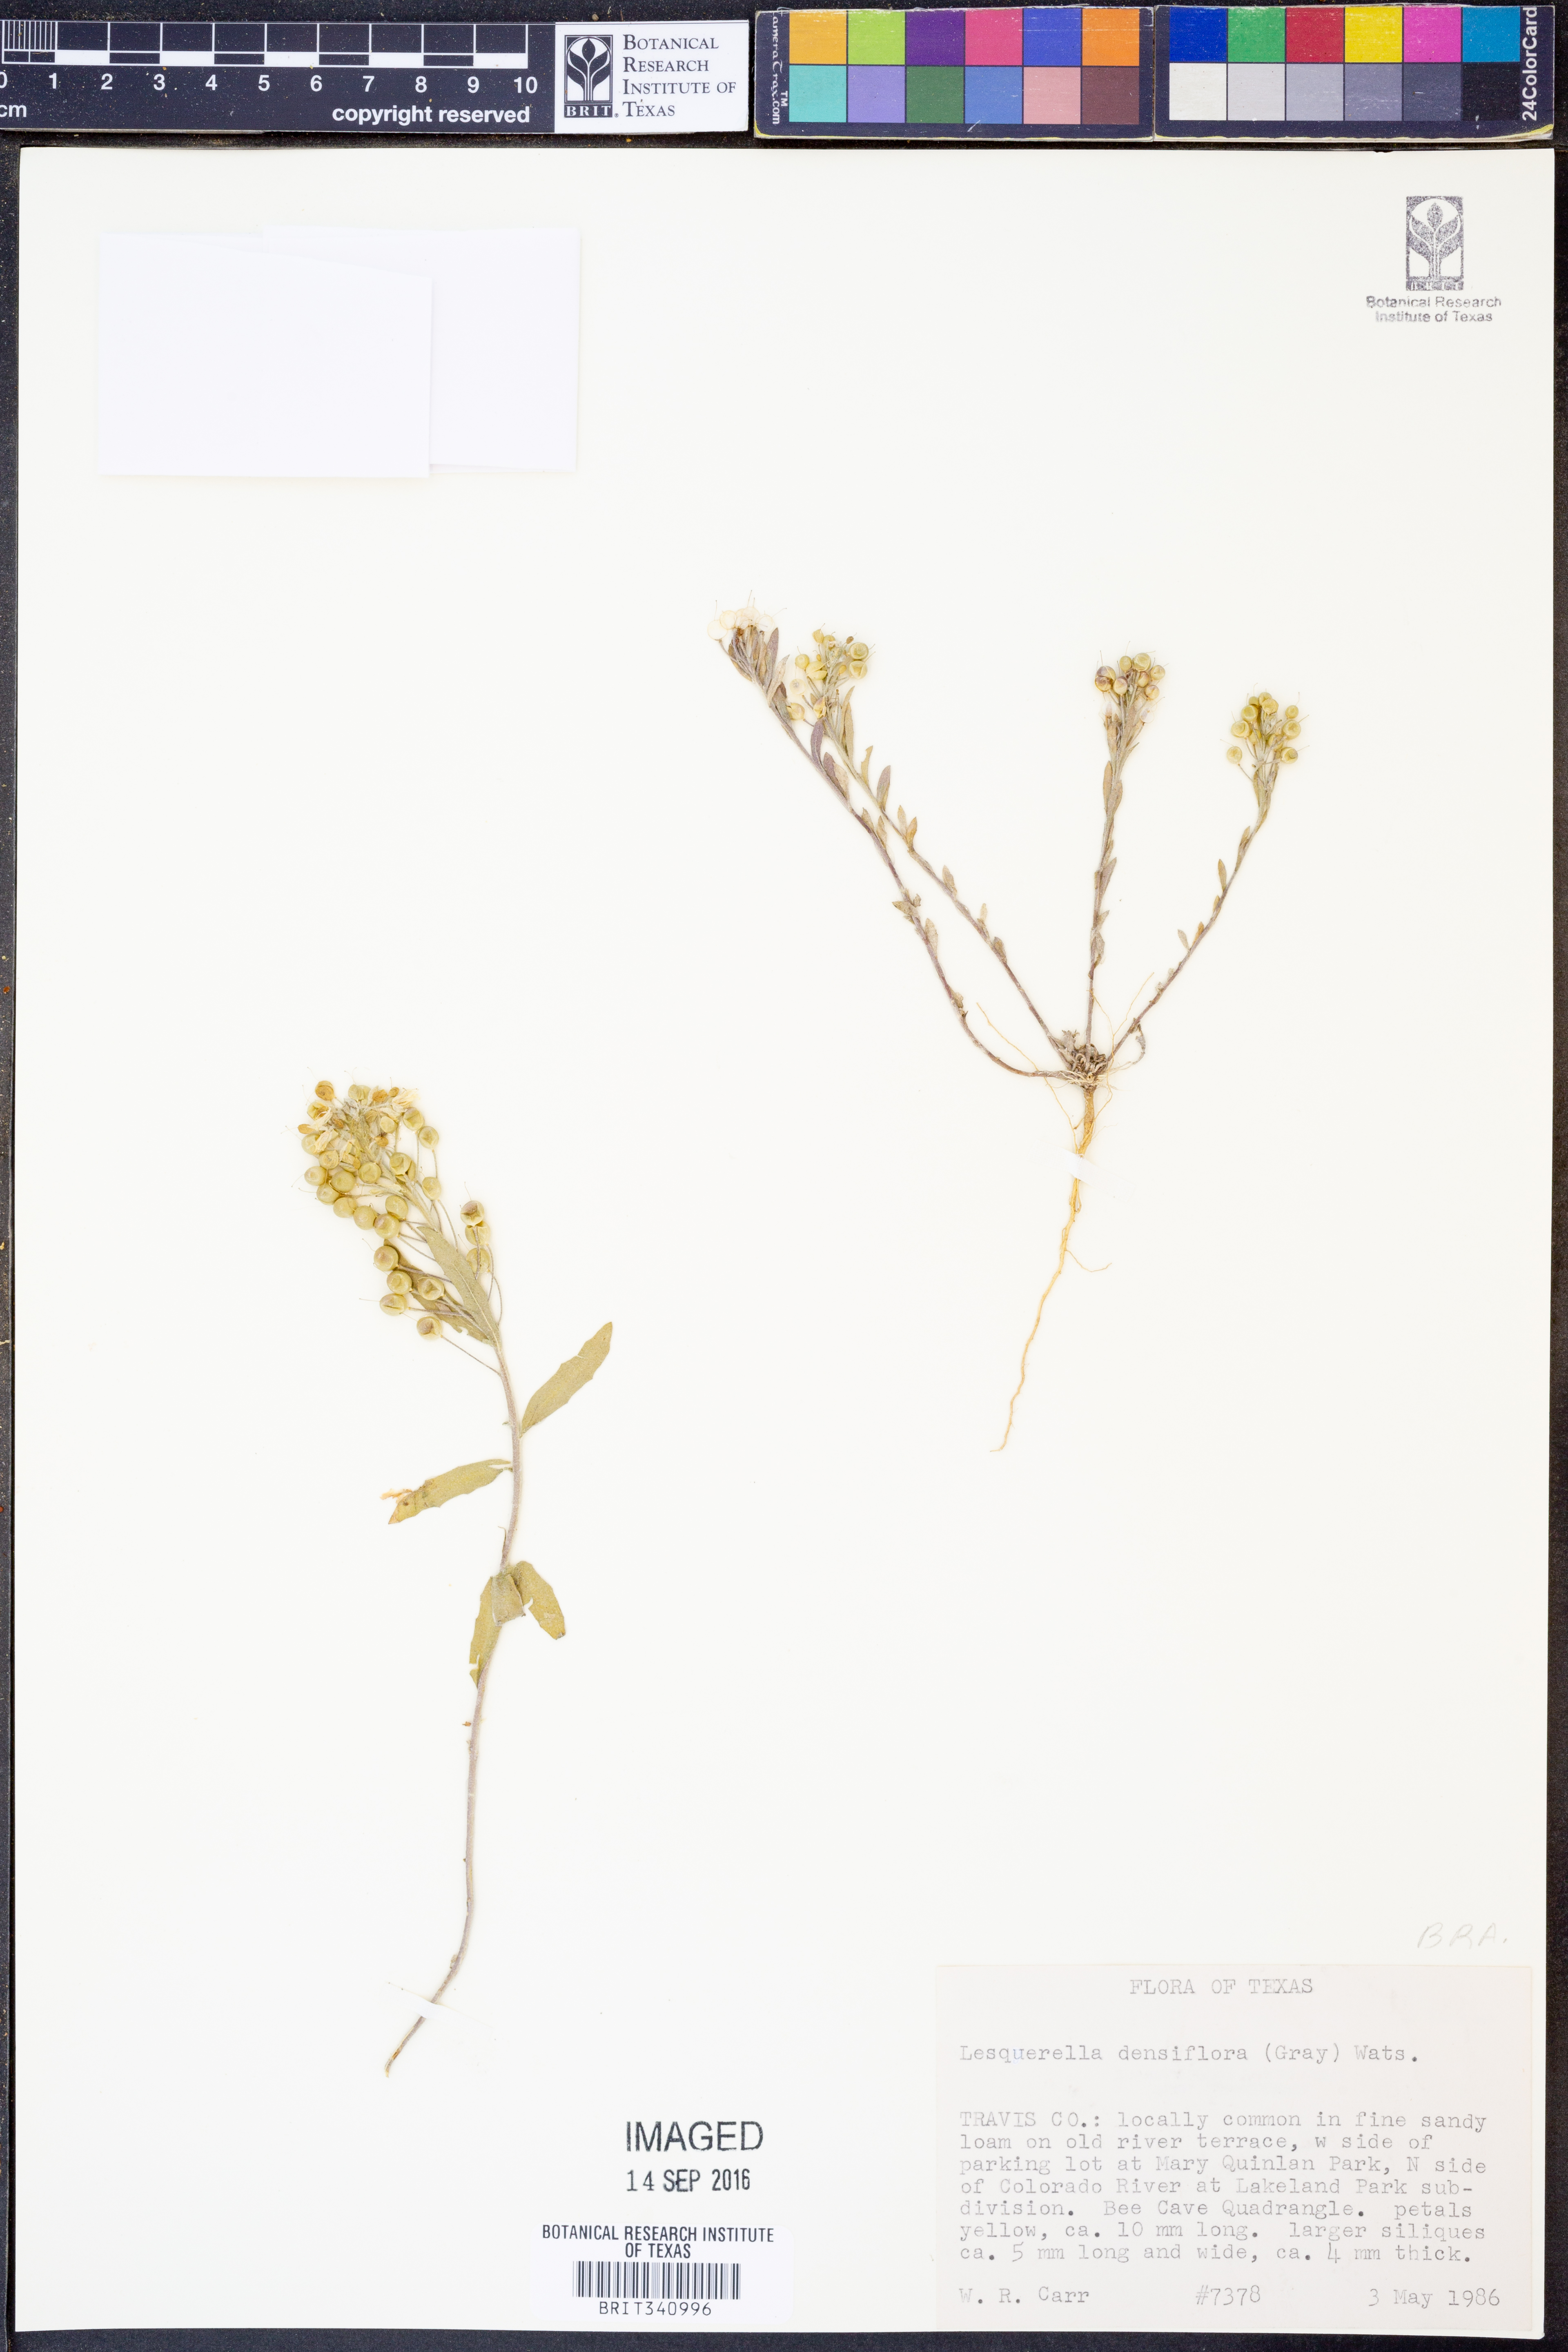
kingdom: Plantae
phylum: Tracheophyta
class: Magnoliopsida
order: Brassicales
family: Brassicaceae
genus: Physaria
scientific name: Physaria densiflora
